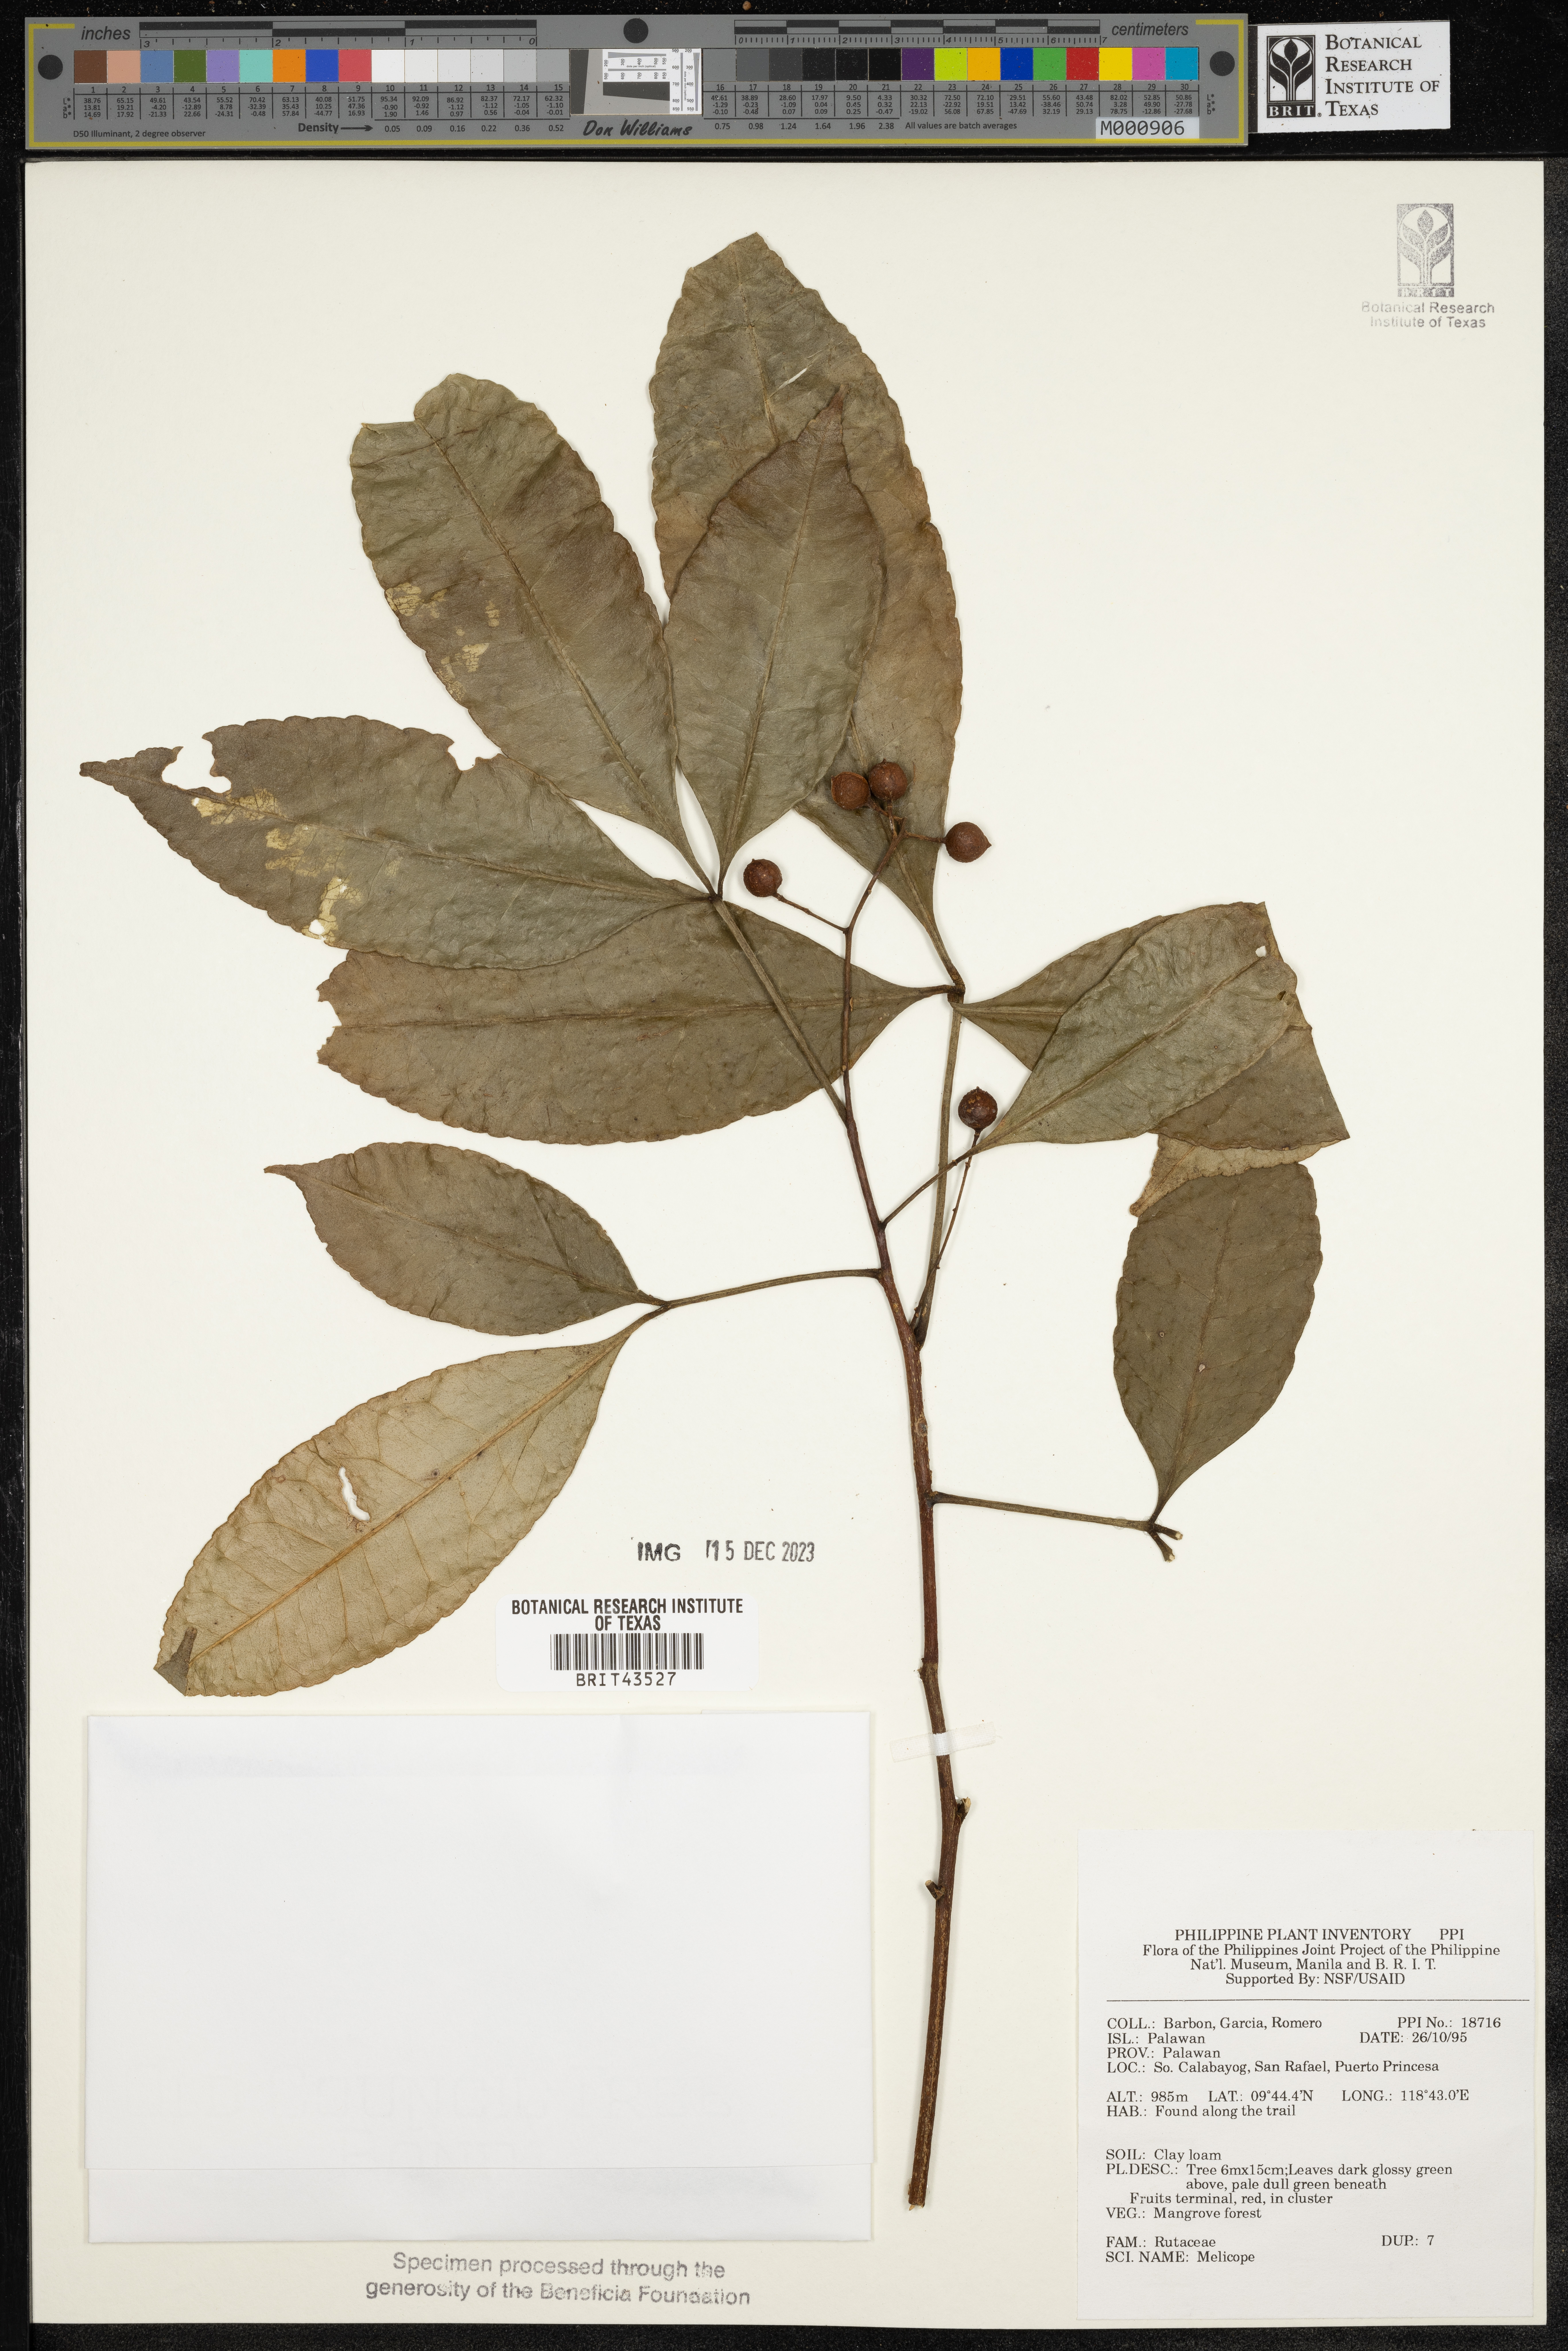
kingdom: Plantae
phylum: Tracheophyta
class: Magnoliopsida
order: Sapindales
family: Rutaceae
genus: Melicope
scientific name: Melicope
